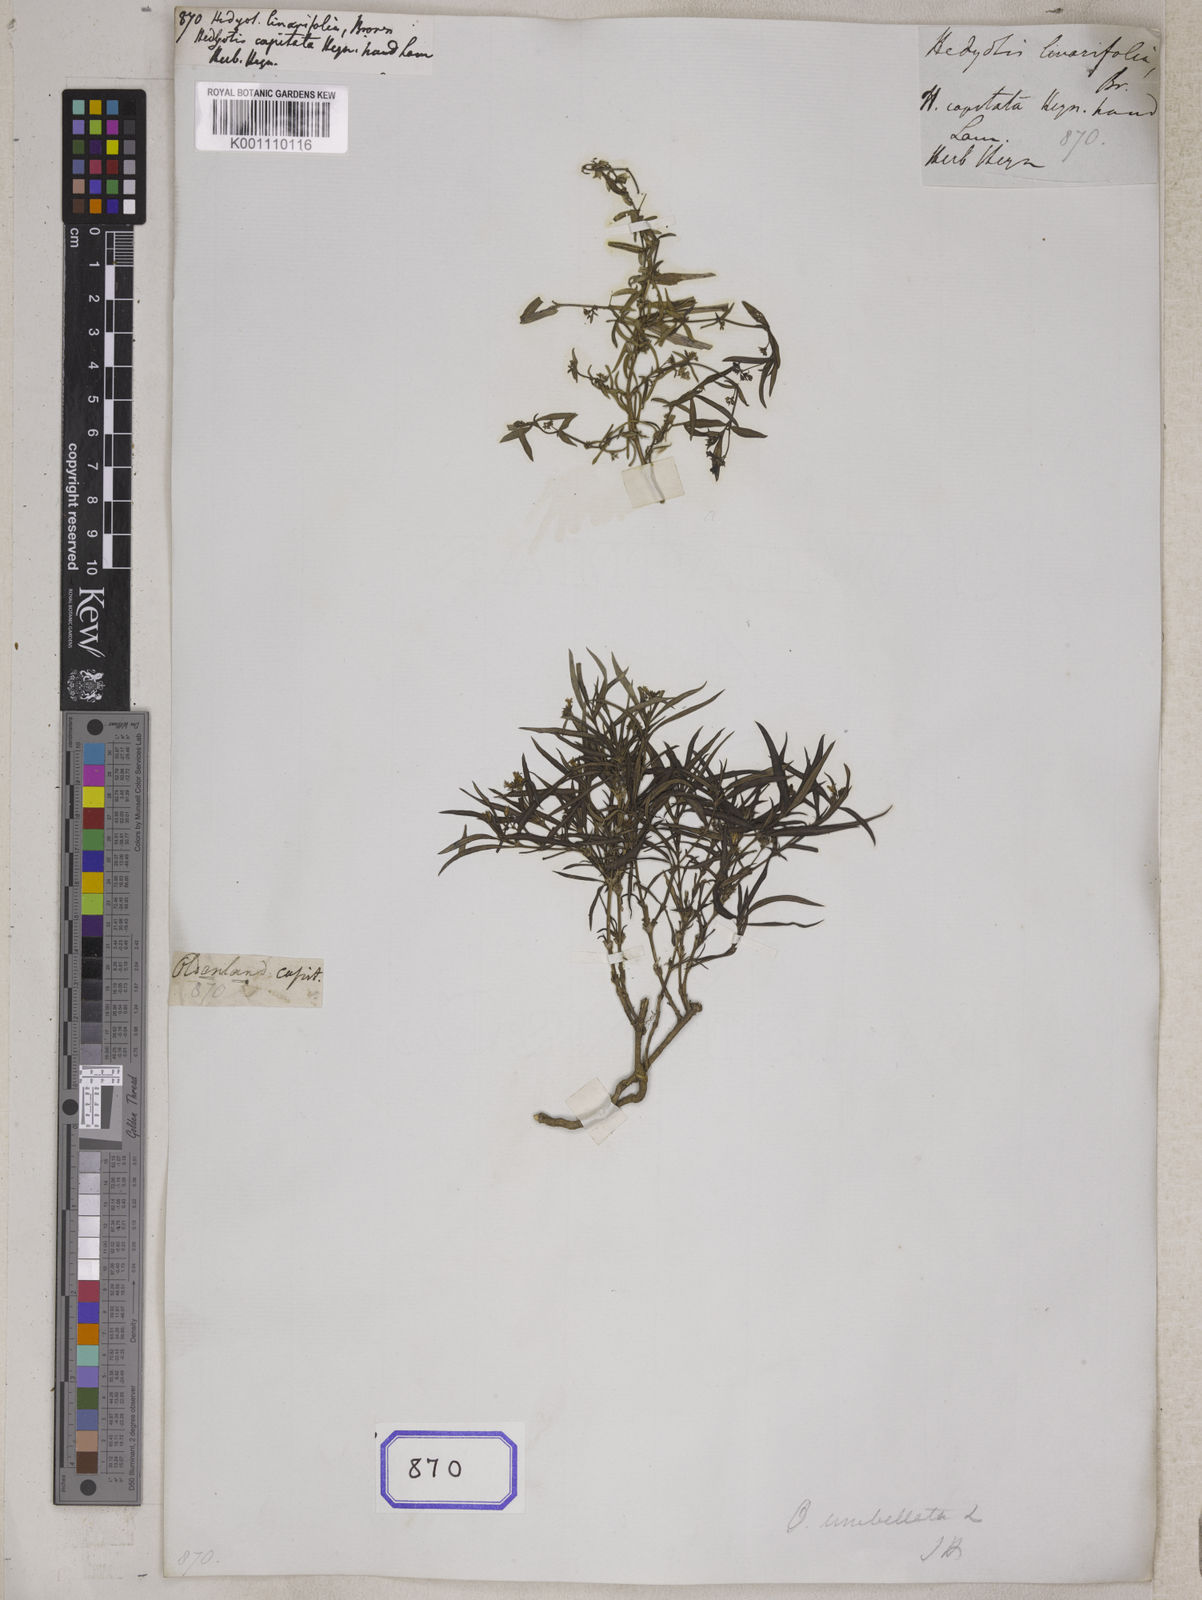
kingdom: Plantae
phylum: Tracheophyta
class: Magnoliopsida
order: Gentianales
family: Rubiaceae
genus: Hedyotis
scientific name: Hedyotis
